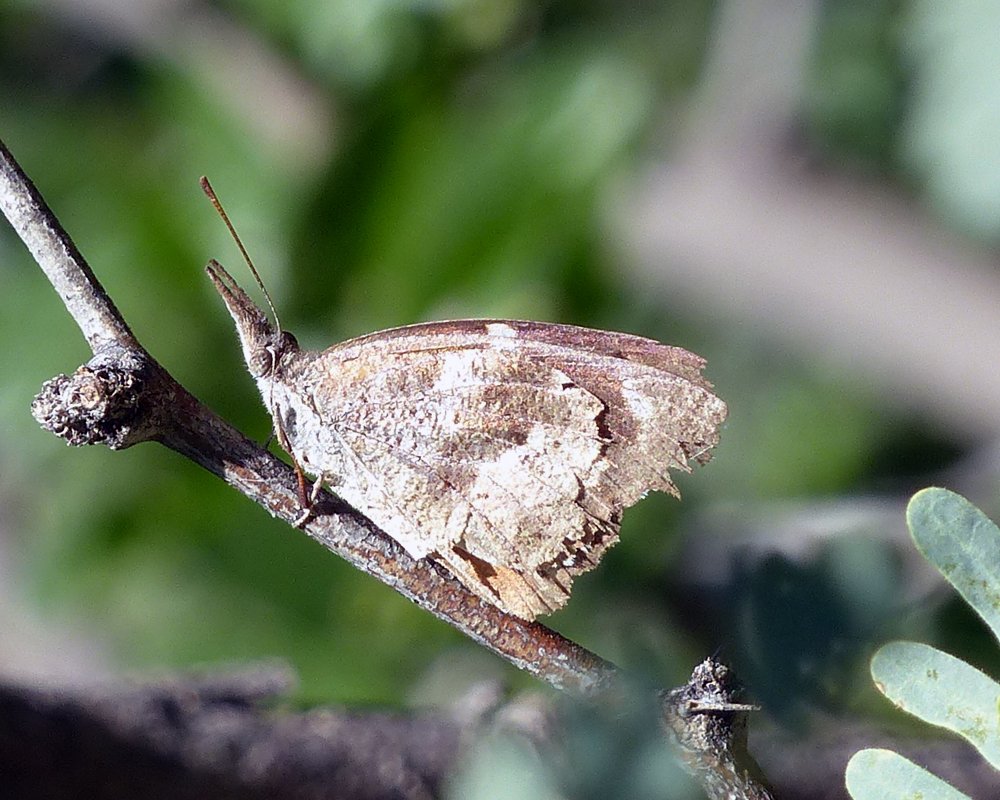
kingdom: Animalia
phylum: Arthropoda
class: Insecta
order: Lepidoptera
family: Nymphalidae
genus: Libytheana
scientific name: Libytheana carinenta
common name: American Snout
